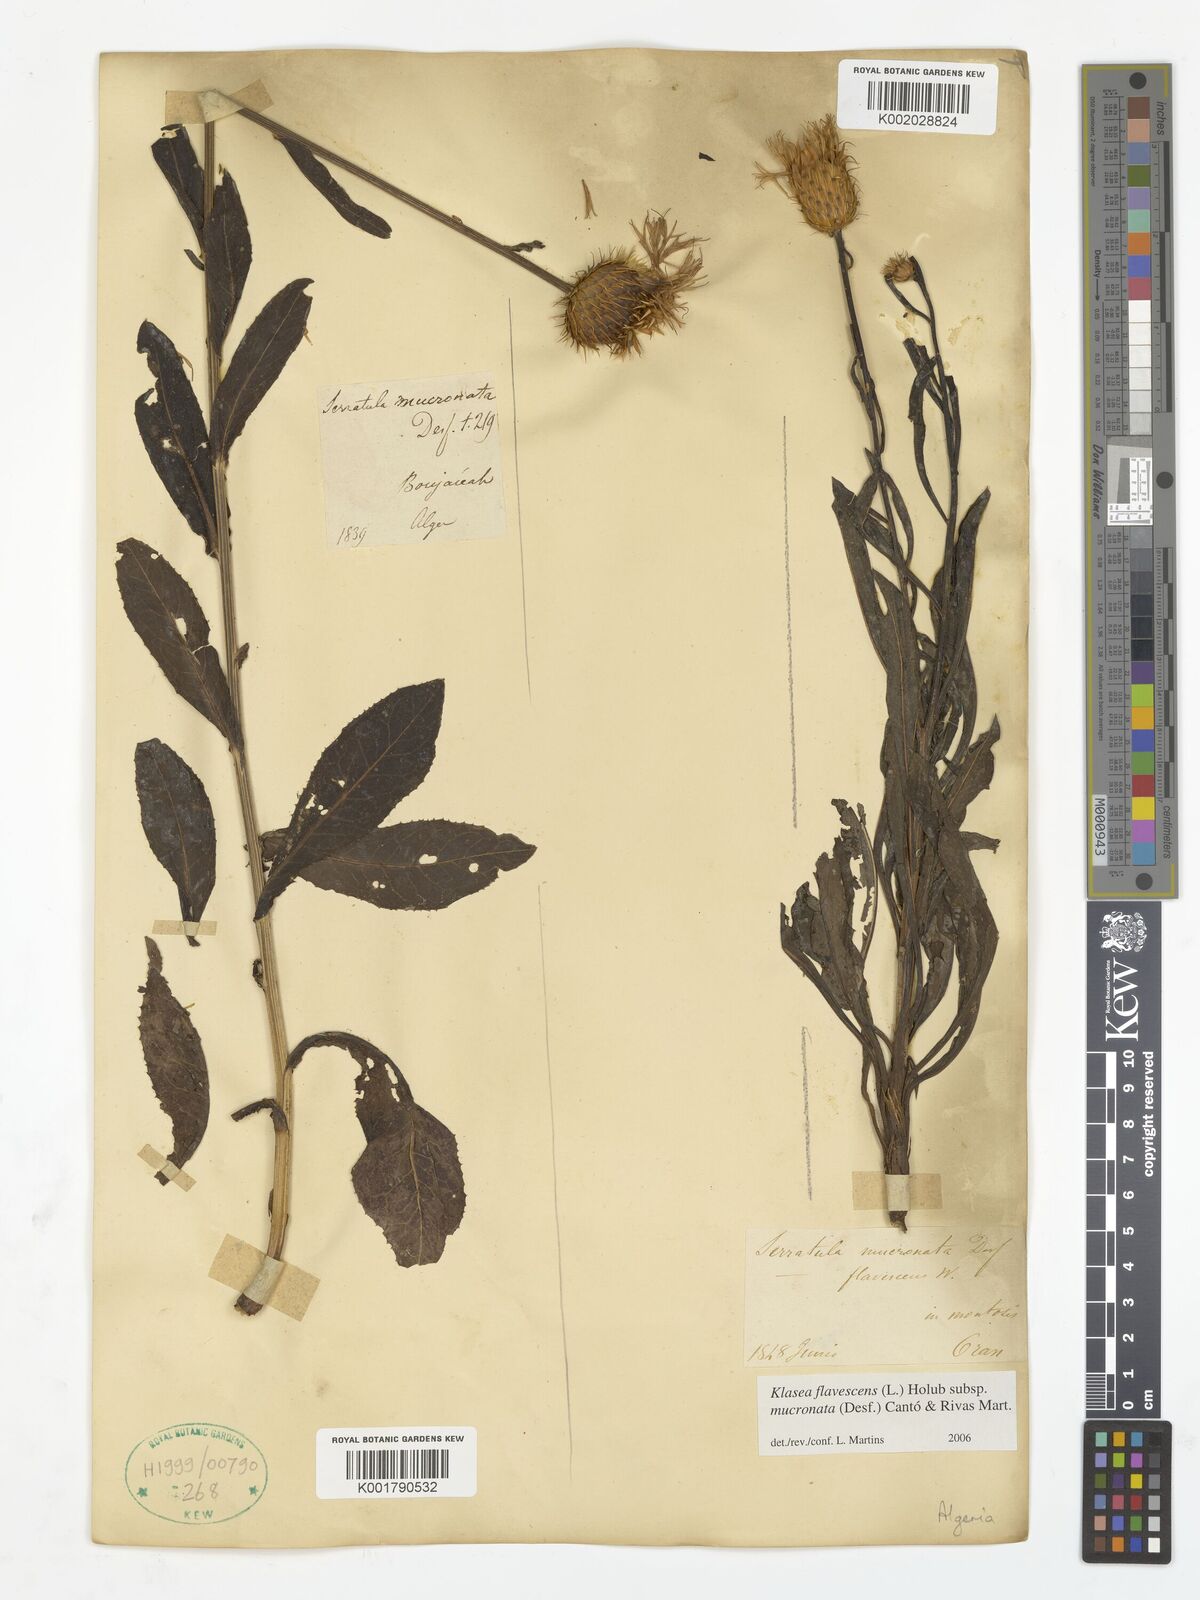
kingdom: Plantae
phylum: Tracheophyta
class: Magnoliopsida
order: Asterales
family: Asteraceae
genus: Klasea
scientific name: Klasea flavescens
